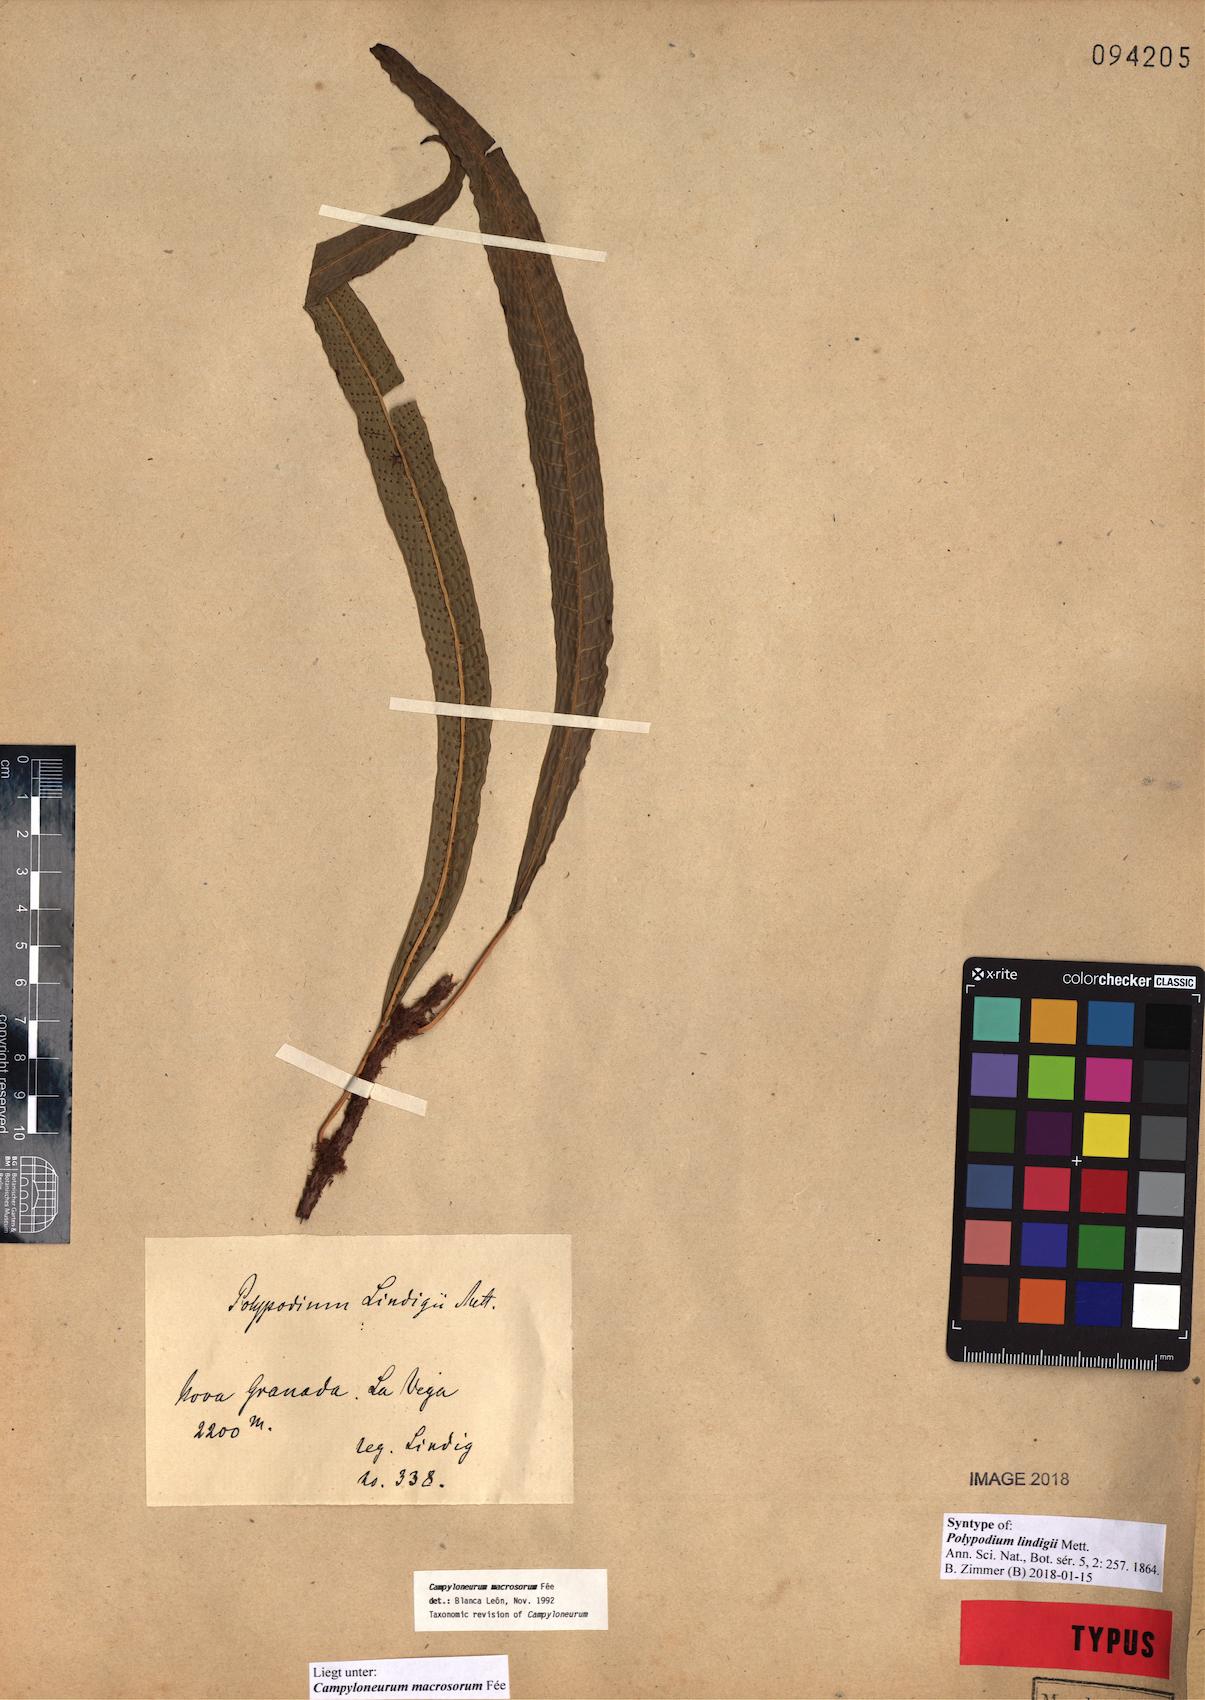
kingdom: Plantae
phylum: Tracheophyta
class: Polypodiopsida
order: Polypodiales
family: Polypodiaceae
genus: Campyloneurum
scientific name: Campyloneurum macrosorum
